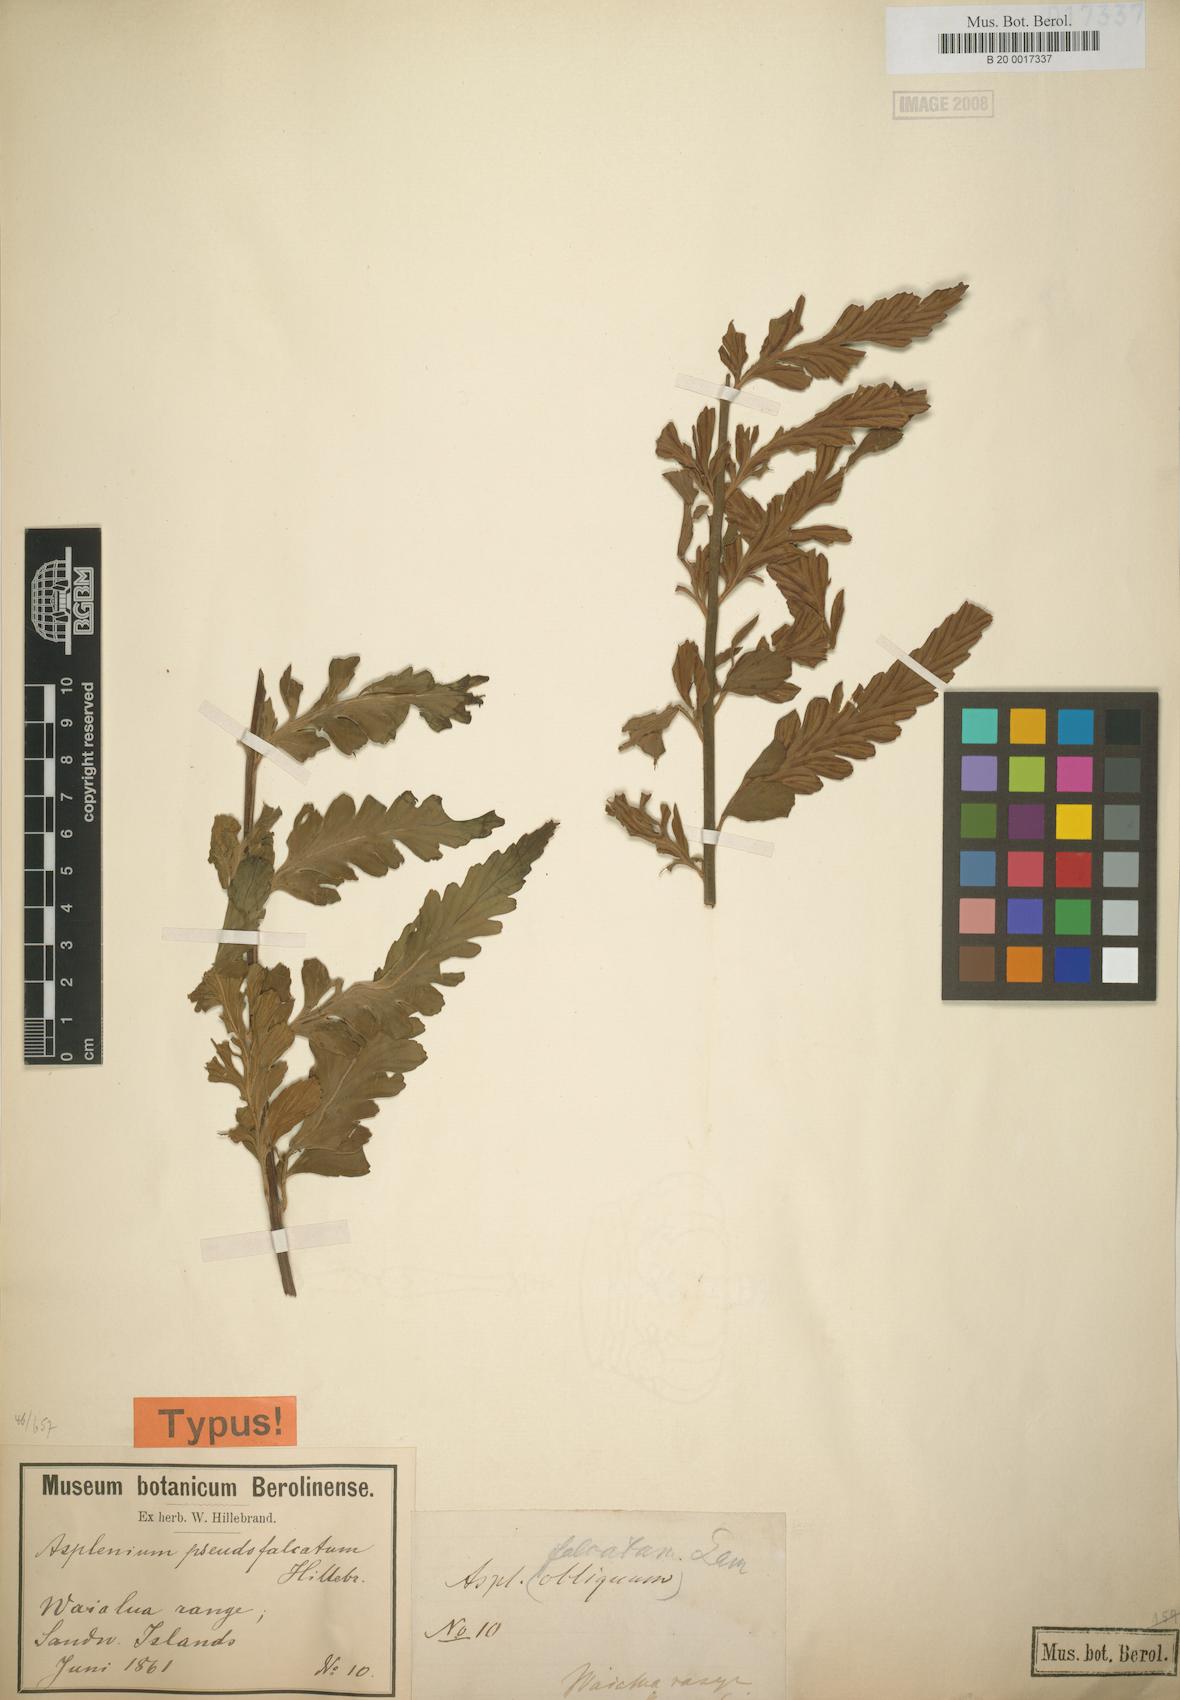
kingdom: Plantae
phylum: Tracheophyta
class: Polypodiopsida
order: Polypodiales
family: Aspleniaceae
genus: Asplenium
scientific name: Asplenium lobulatum
